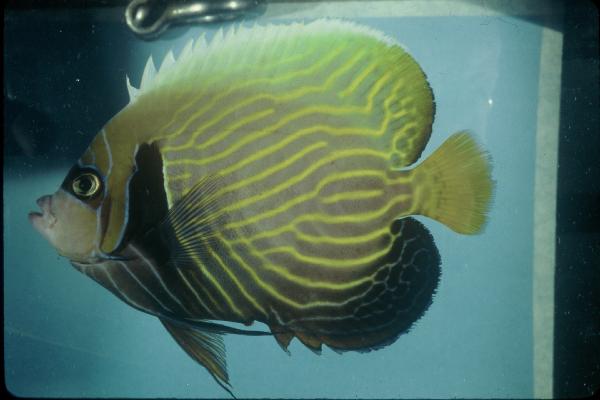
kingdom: Animalia
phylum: Chordata
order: Perciformes
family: Pomacanthidae
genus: Pomacanthus
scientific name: Pomacanthus imperator
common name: Emperor angelfish
